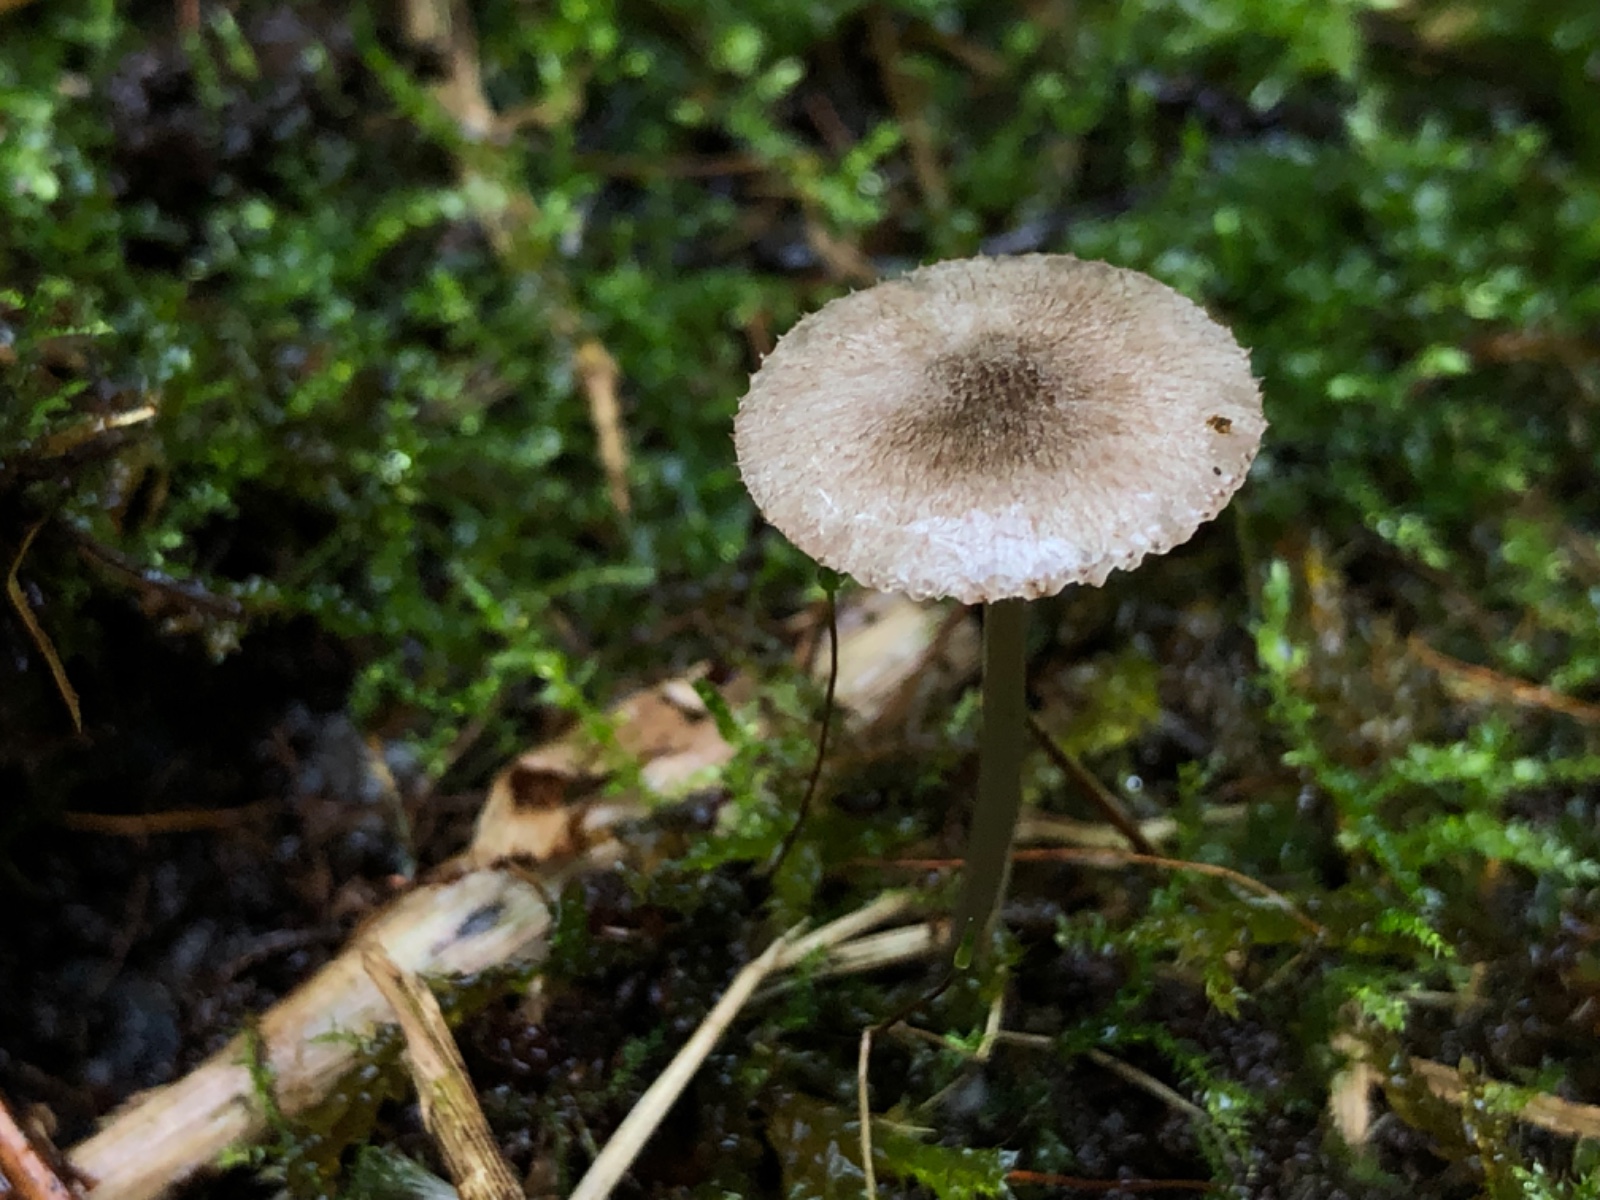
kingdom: Fungi
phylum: Basidiomycota
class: Agaricomycetes
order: Agaricales
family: Pluteaceae
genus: Pluteus
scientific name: Pluteus
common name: stivhåret skærmhat
